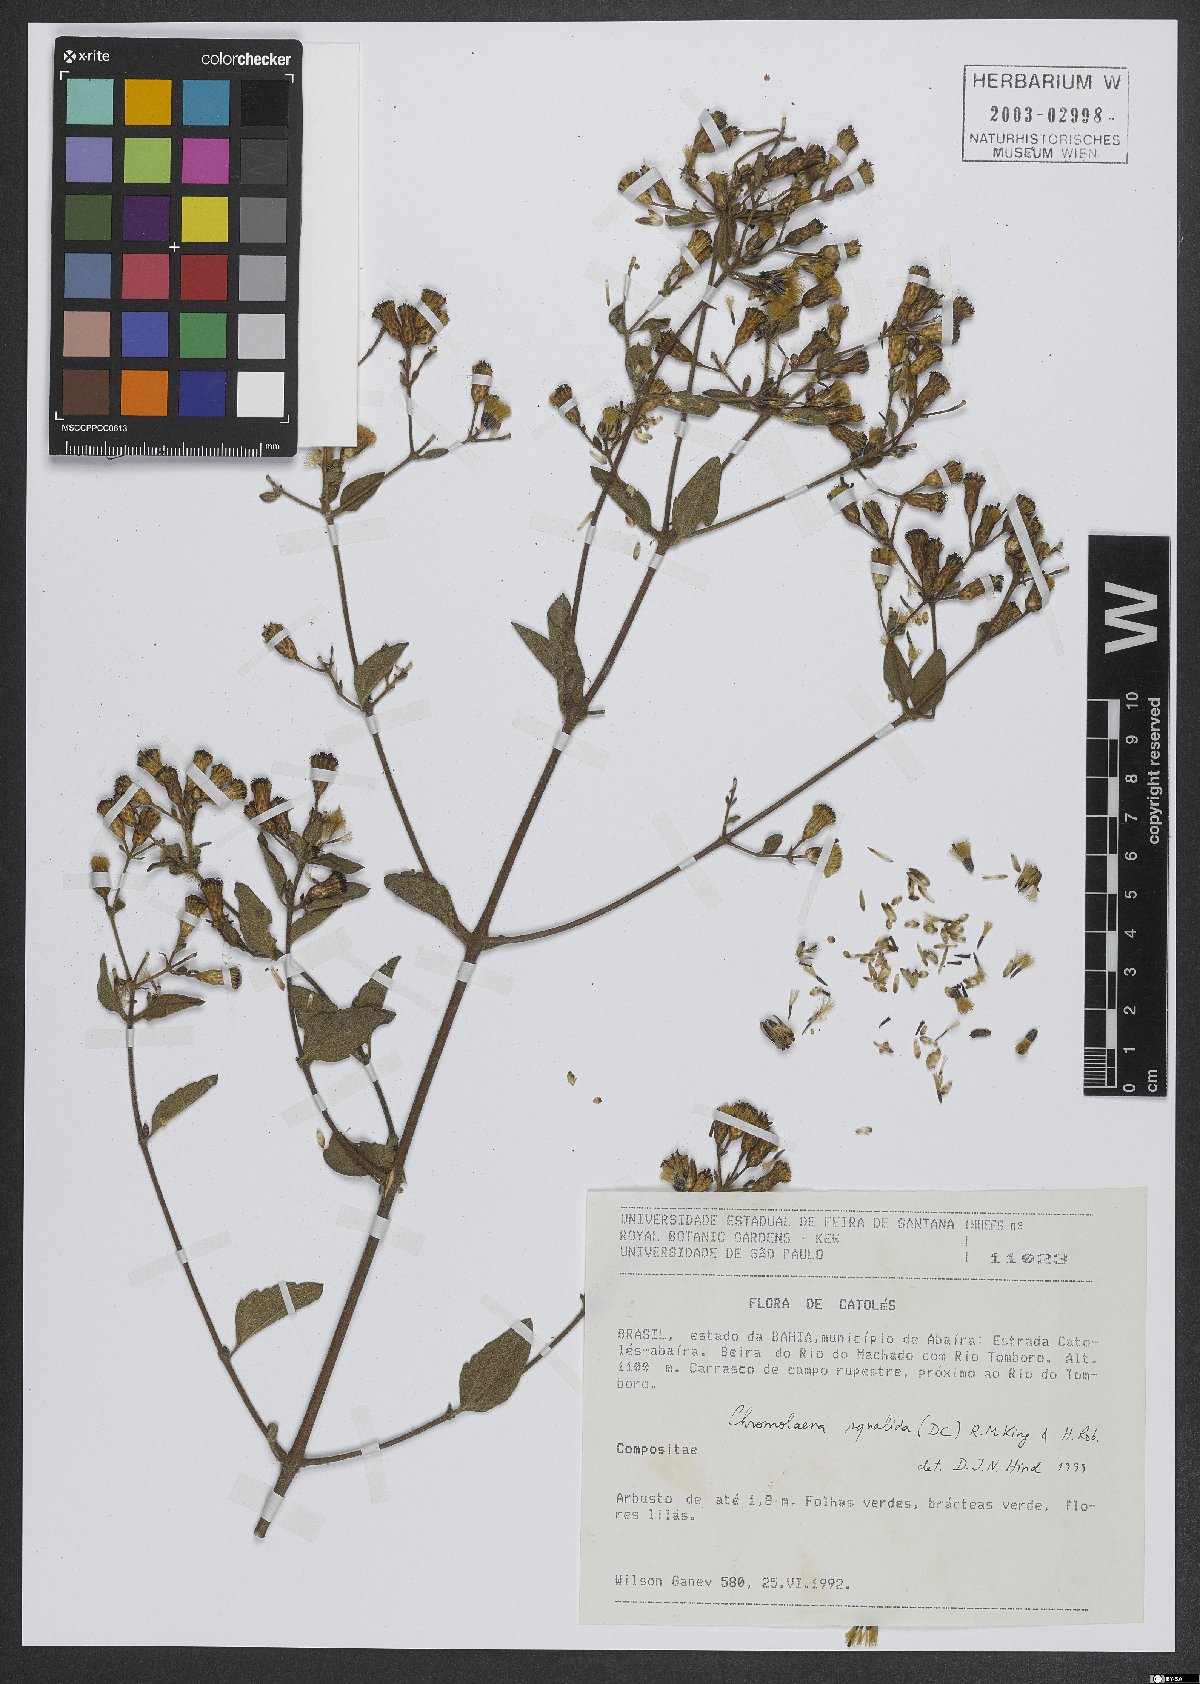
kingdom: Plantae
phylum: Tracheophyta
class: Magnoliopsida
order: Asterales
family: Asteraceae
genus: Chromolaena
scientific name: Chromolaena squalida
